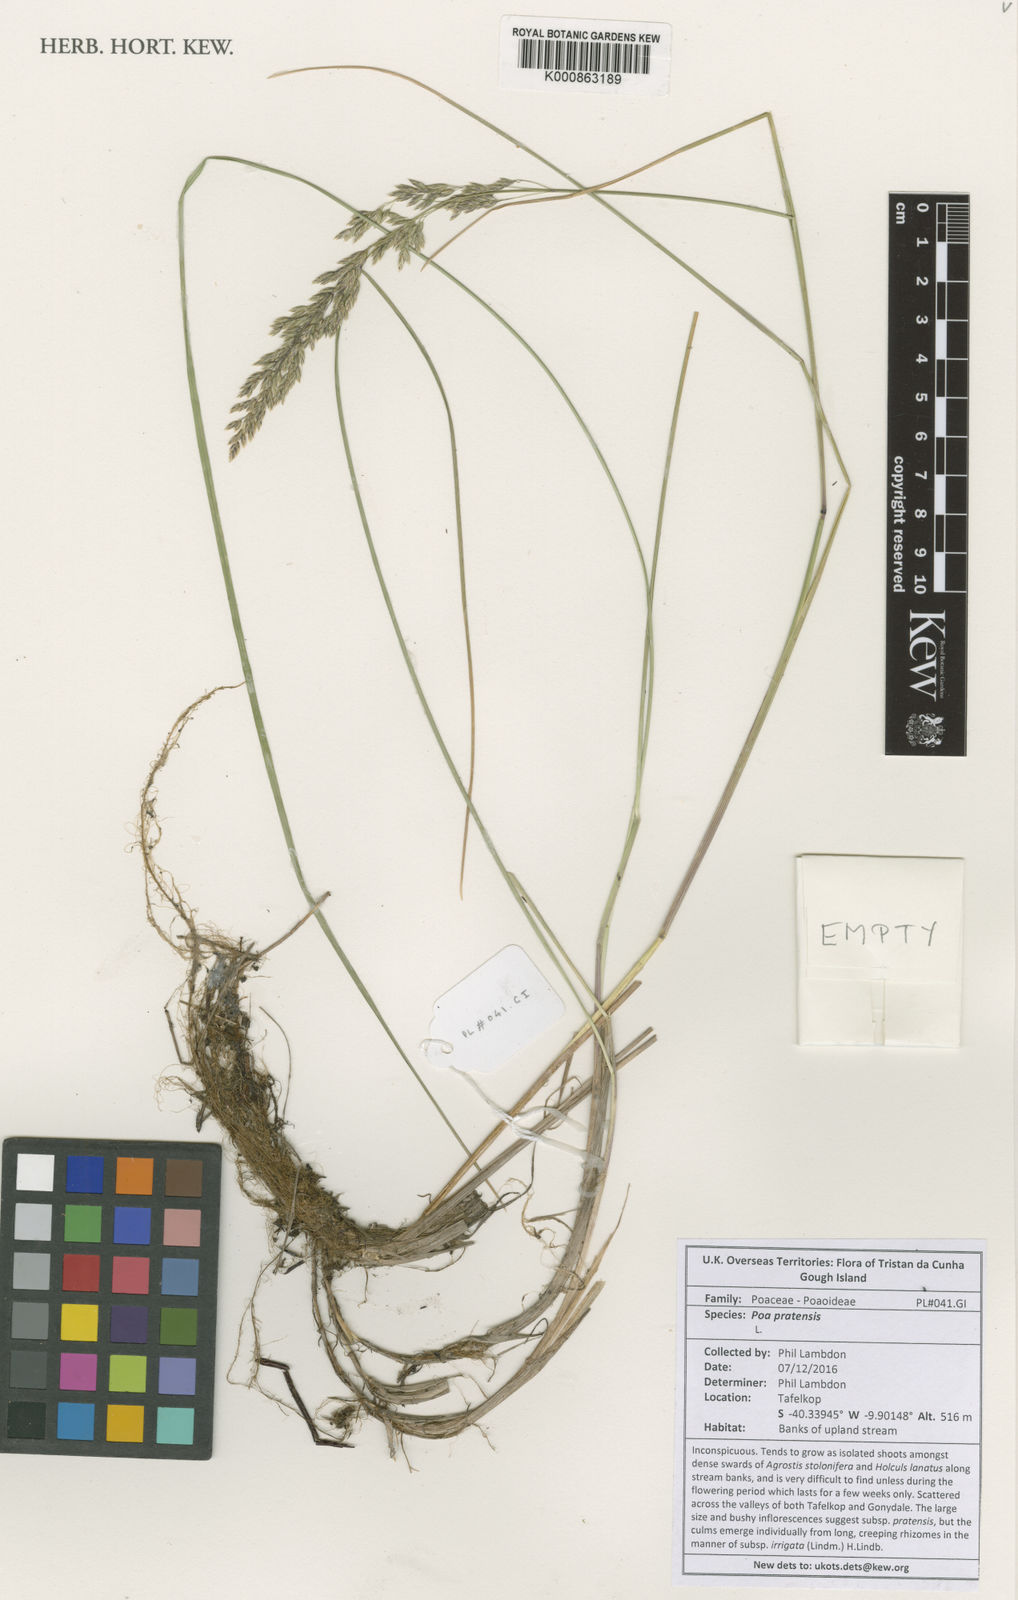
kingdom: Plantae
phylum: Tracheophyta
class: Liliopsida
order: Poales
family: Poaceae
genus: Poa
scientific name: Poa pratensis
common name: Kentucky bluegrass
